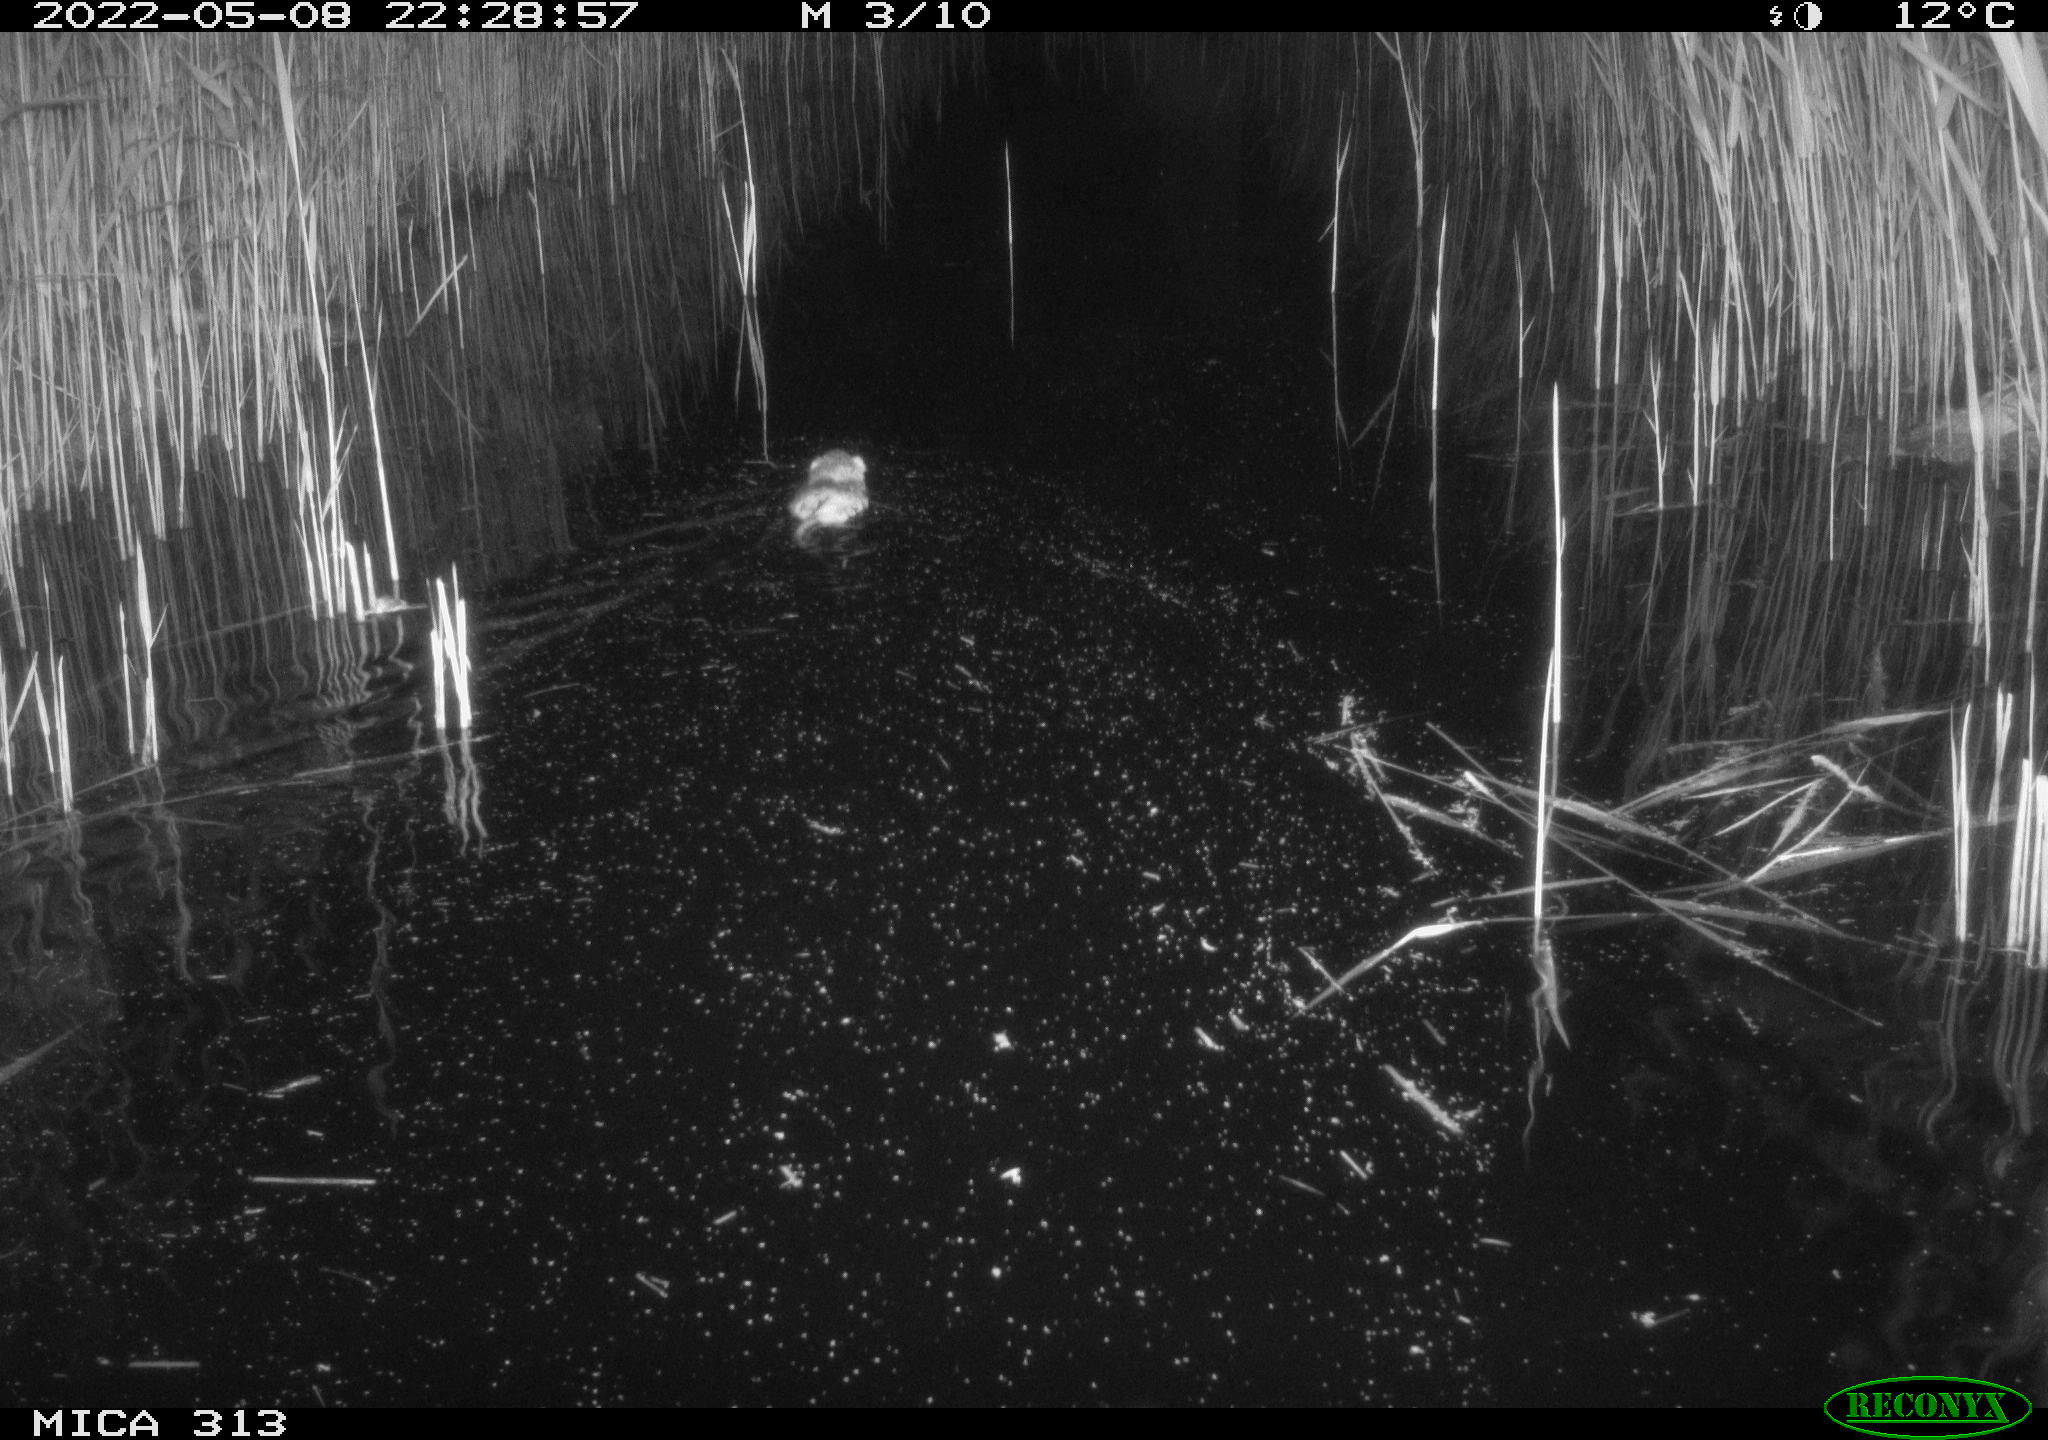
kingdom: Animalia
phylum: Chordata
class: Mammalia
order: Rodentia
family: Cricetidae
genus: Ondatra
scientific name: Ondatra zibethicus
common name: Muskrat
